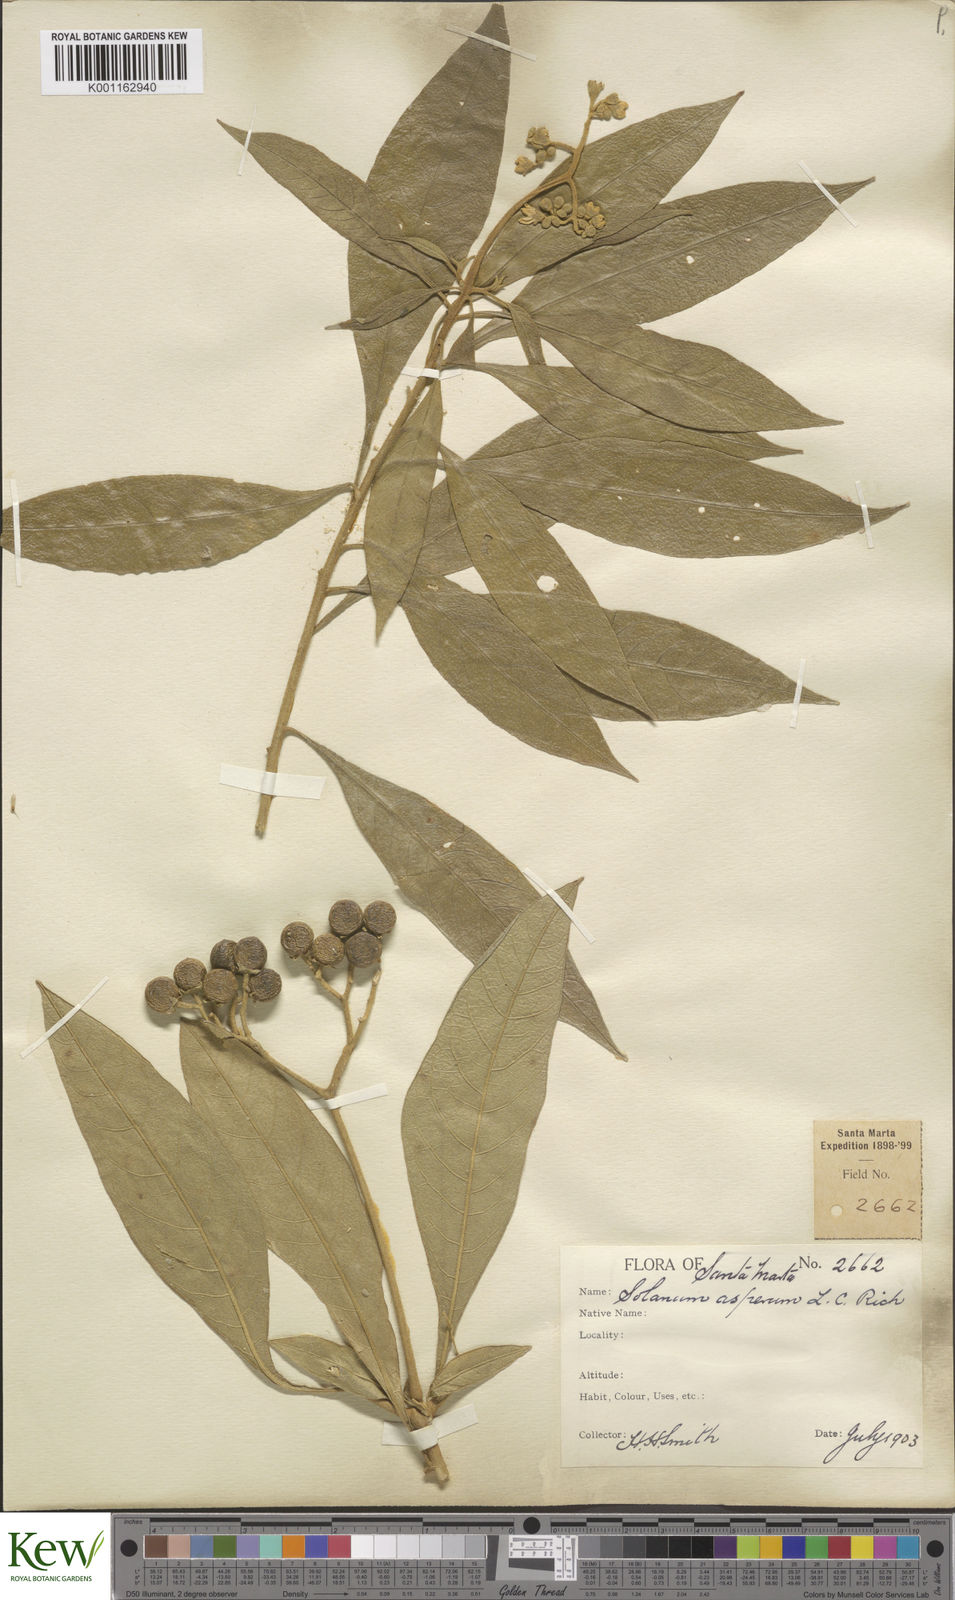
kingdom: Plantae
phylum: Tracheophyta
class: Magnoliopsida
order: Solanales
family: Solanaceae
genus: Solanum
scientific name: Solanum asperum
